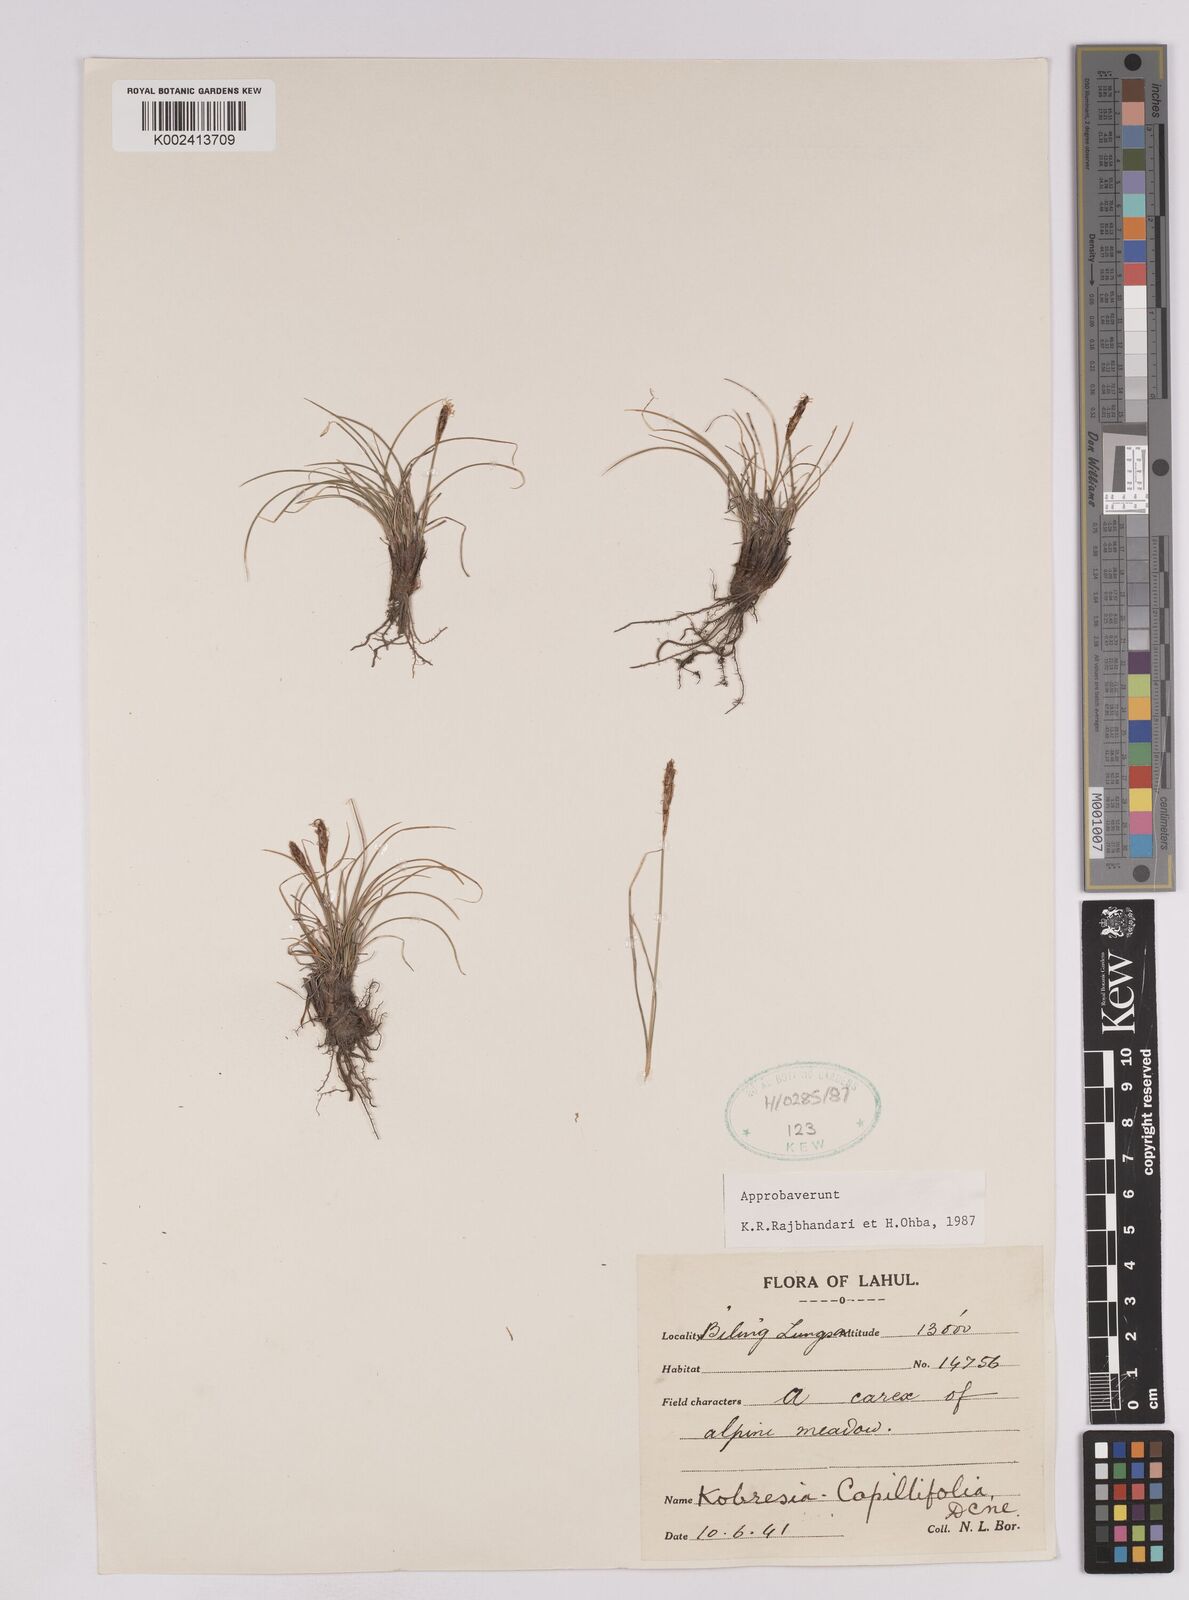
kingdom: Plantae
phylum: Tracheophyta
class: Liliopsida
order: Poales
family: Cyperaceae
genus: Carex
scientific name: Carex capillifolia
